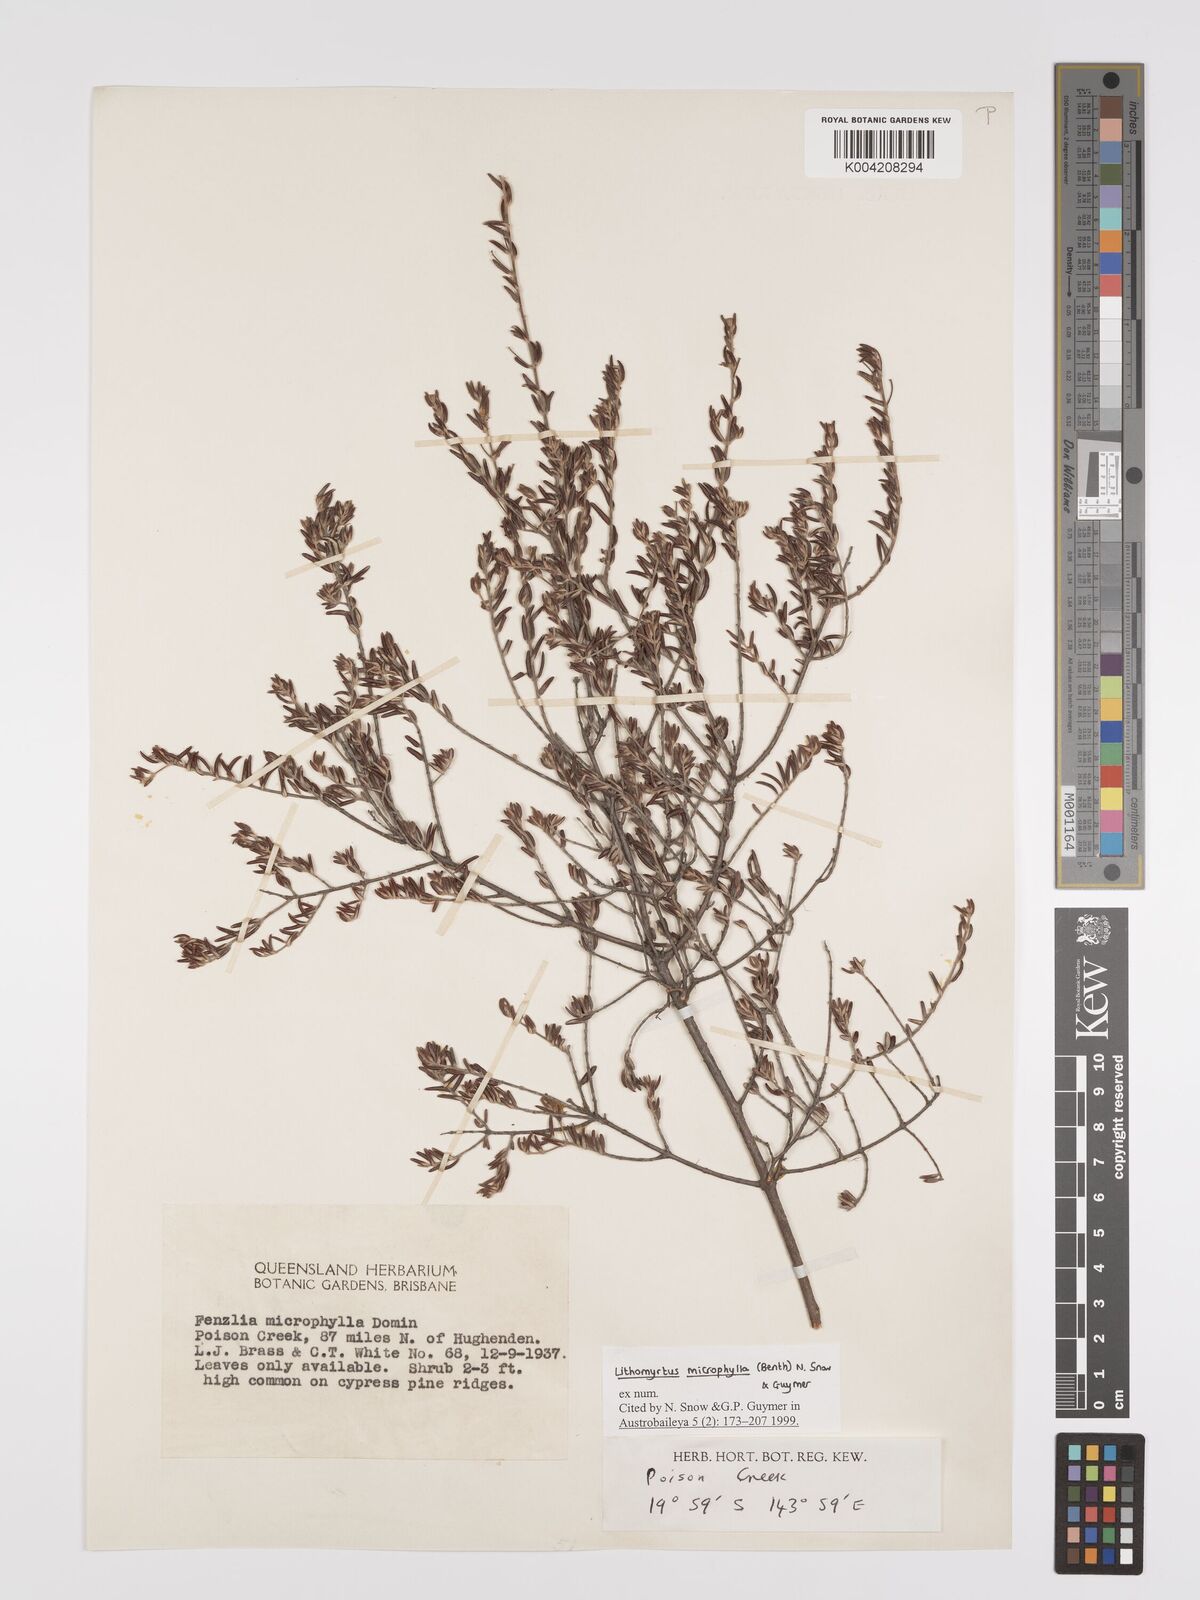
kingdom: Plantae
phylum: Tracheophyta
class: Magnoliopsida
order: Myrtales
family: Myrtaceae
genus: Lithomyrtus
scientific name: Lithomyrtus microphylla
